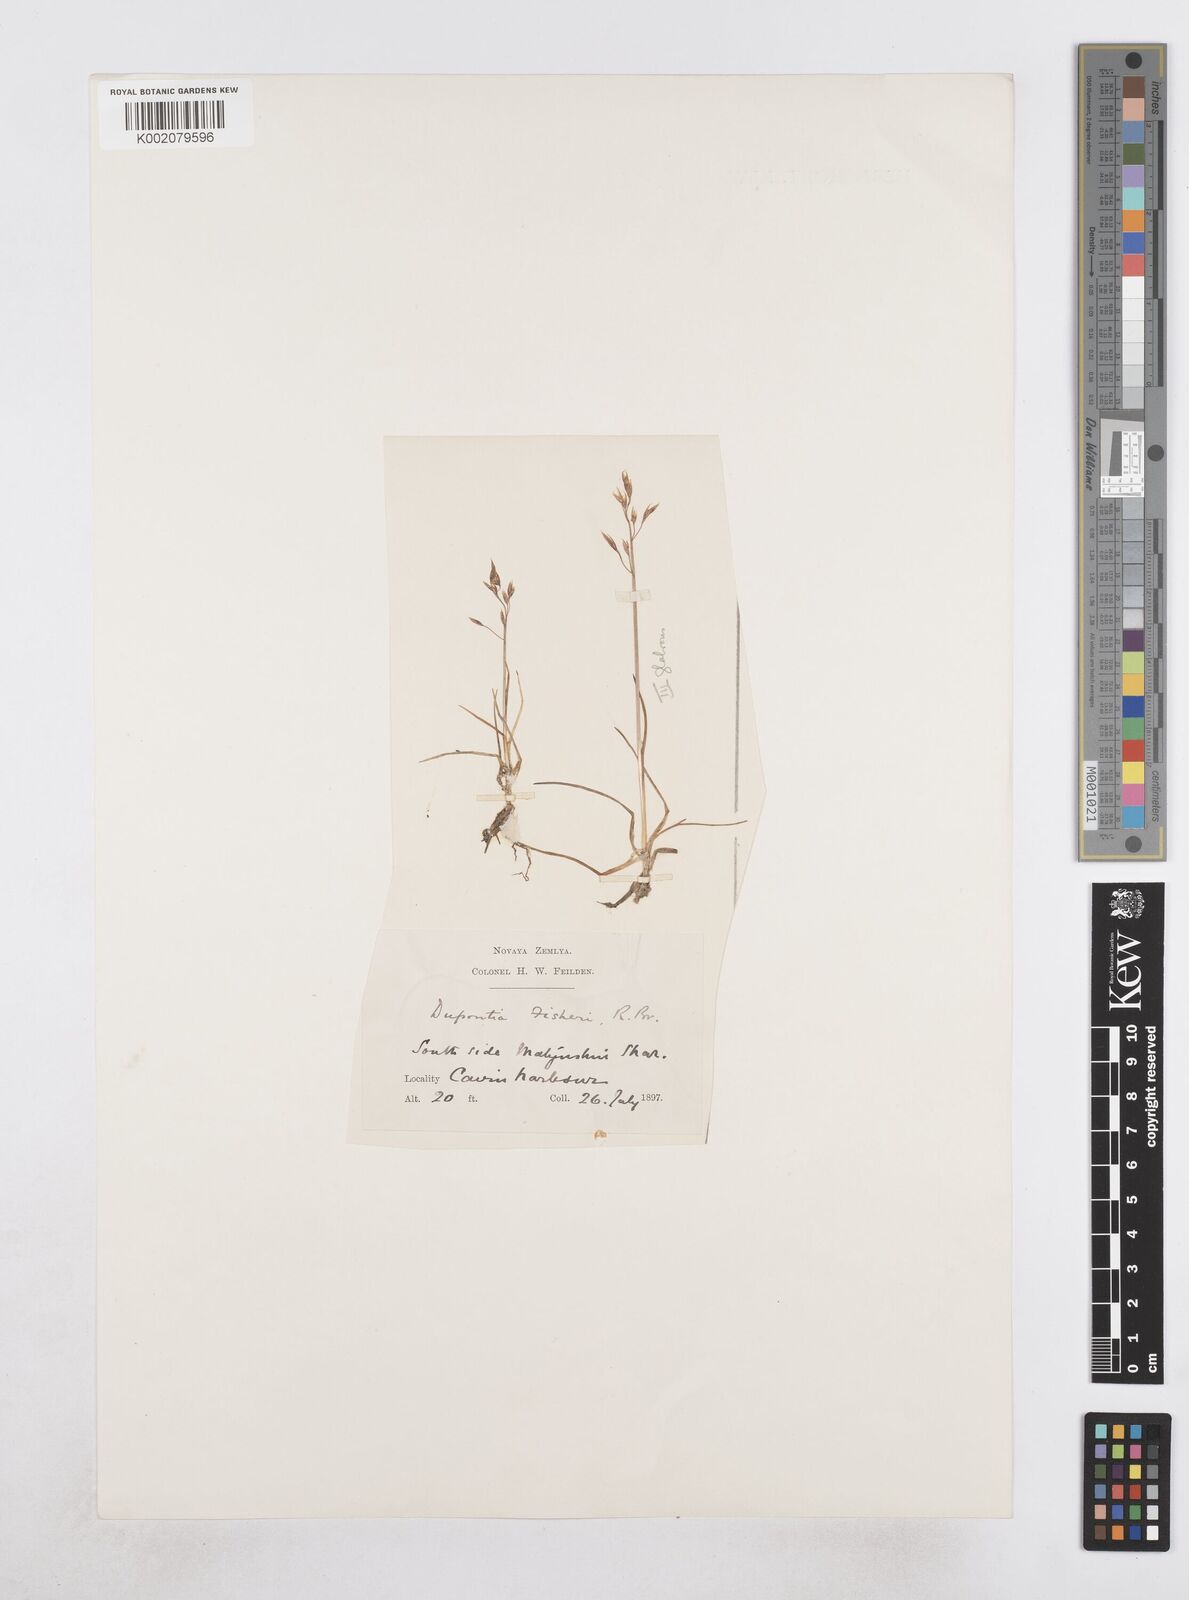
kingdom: Plantae
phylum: Tracheophyta
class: Liliopsida
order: Poales
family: Poaceae
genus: Dupontia
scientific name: Dupontia fisheri
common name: Tundra grass
